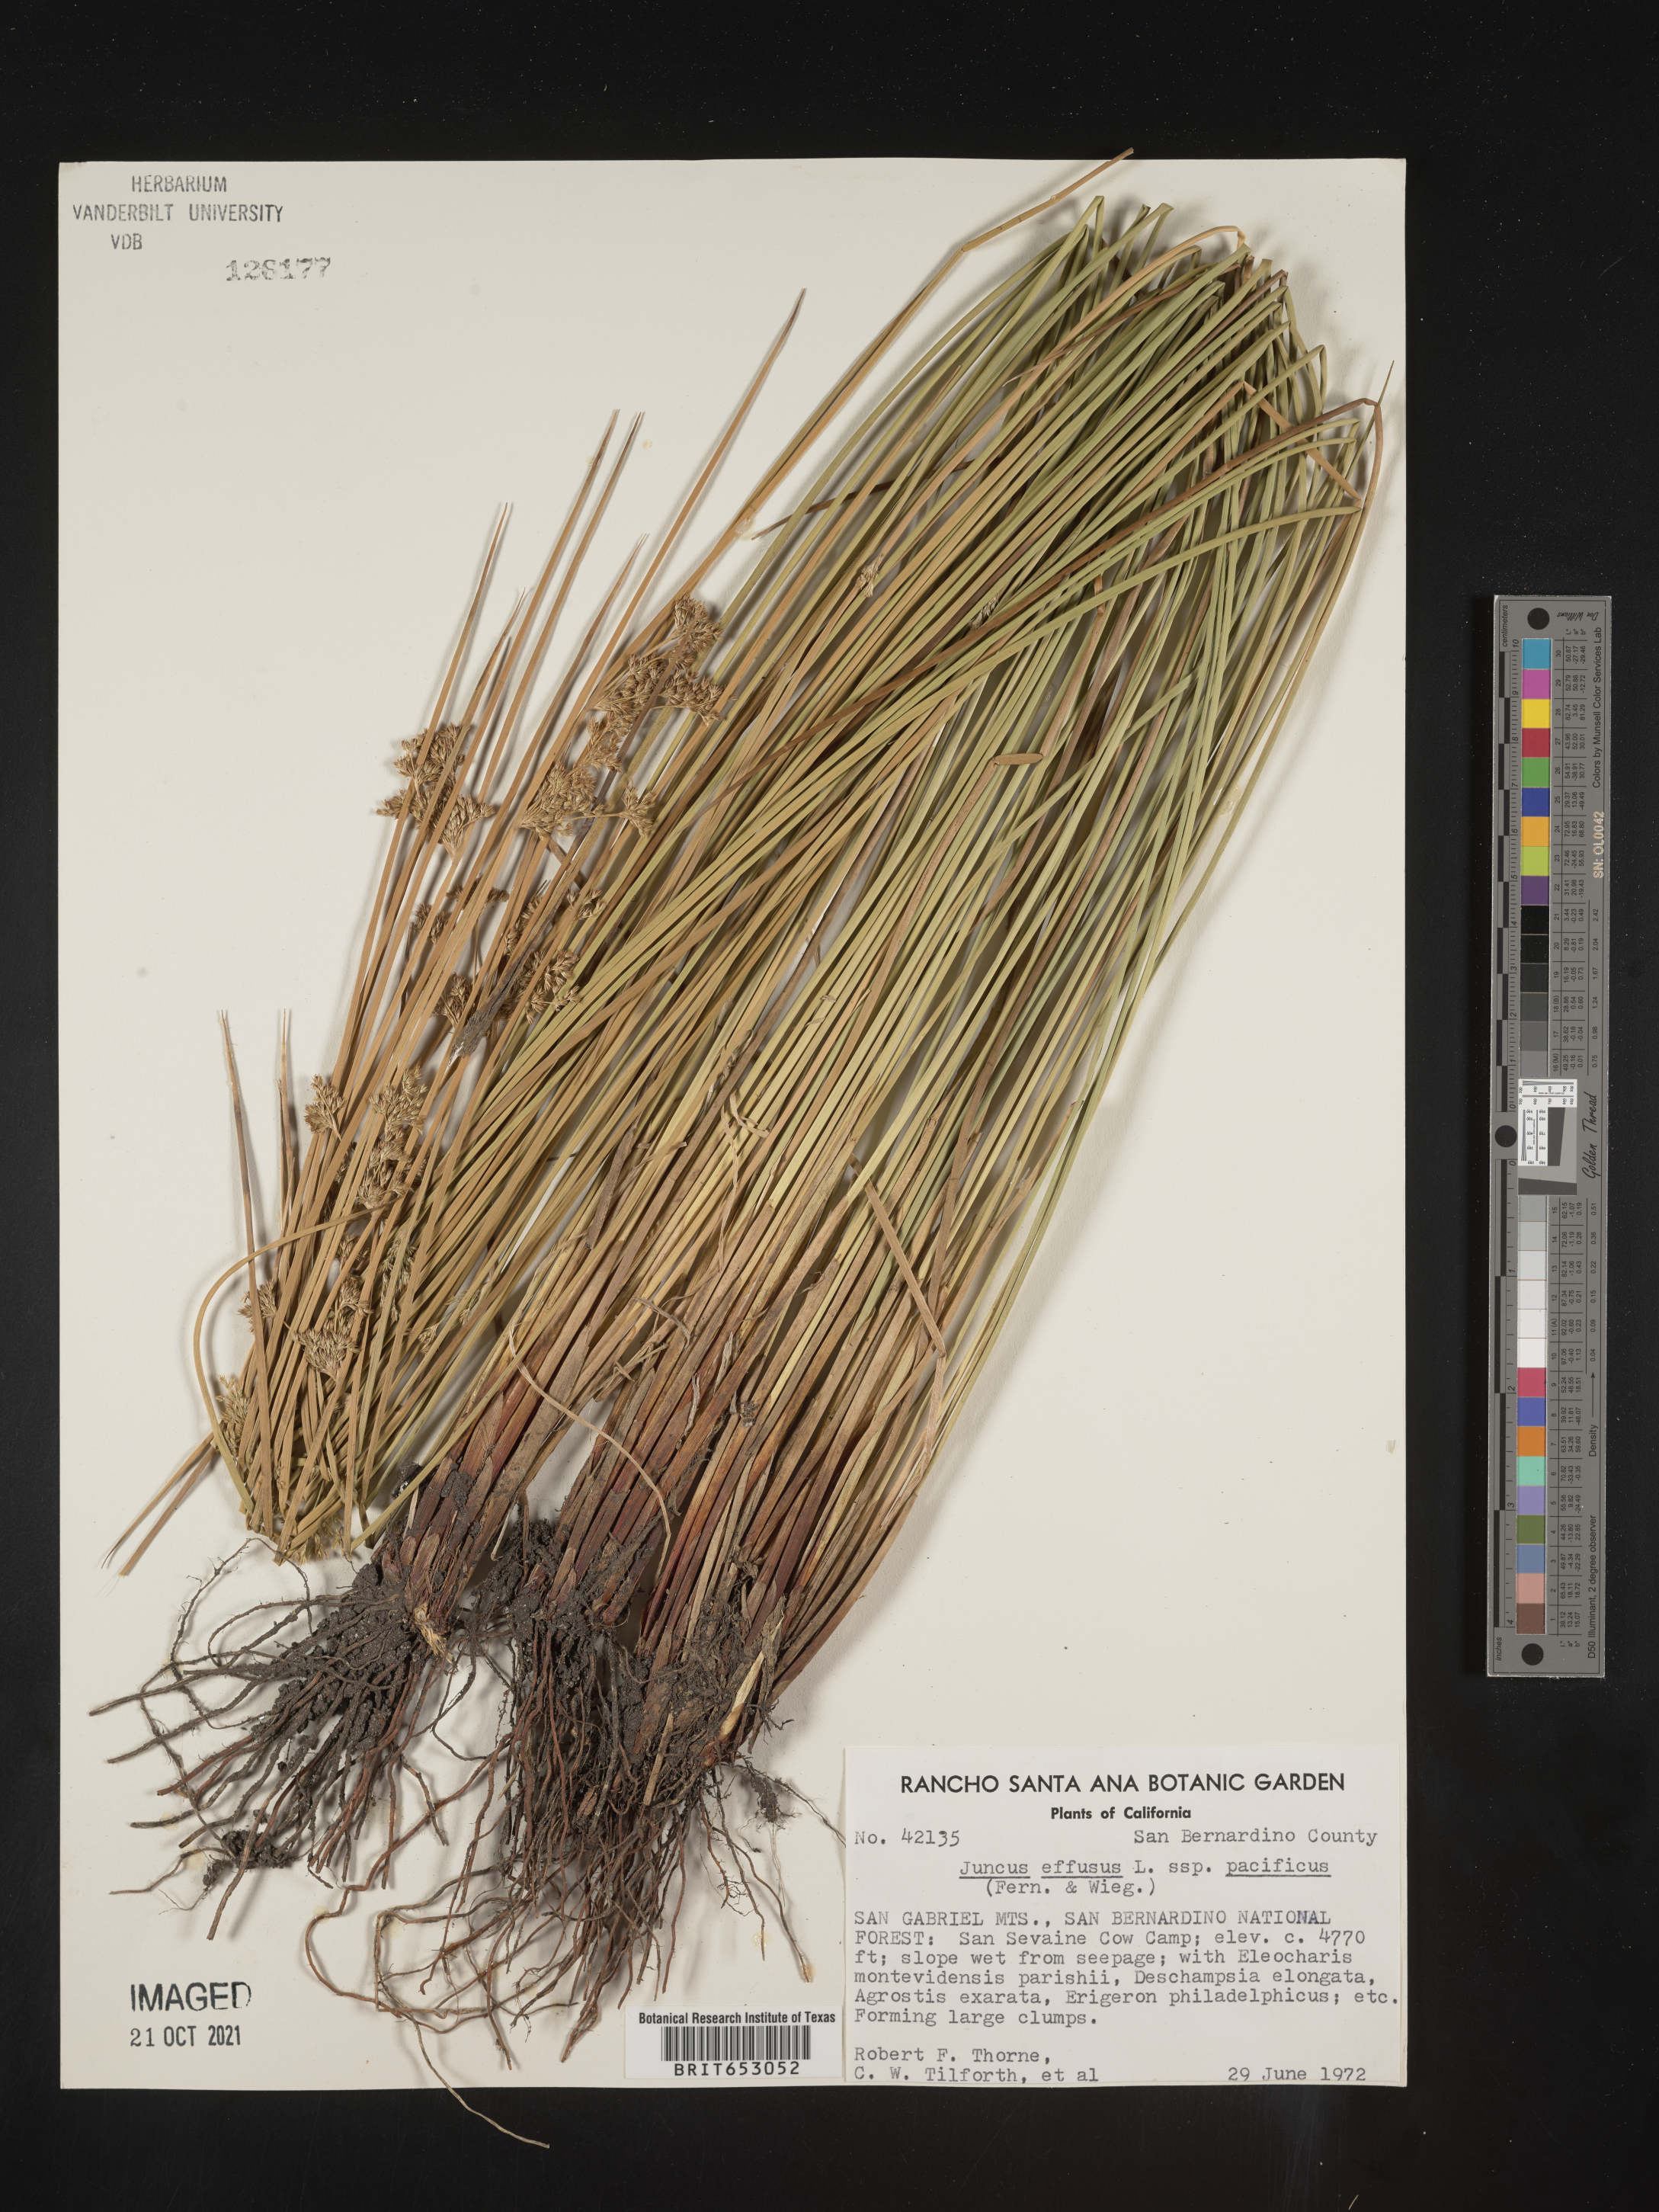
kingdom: Plantae
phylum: Tracheophyta
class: Liliopsida
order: Poales
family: Juncaceae
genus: Juncus
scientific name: Juncus effusus
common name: Soft rush
